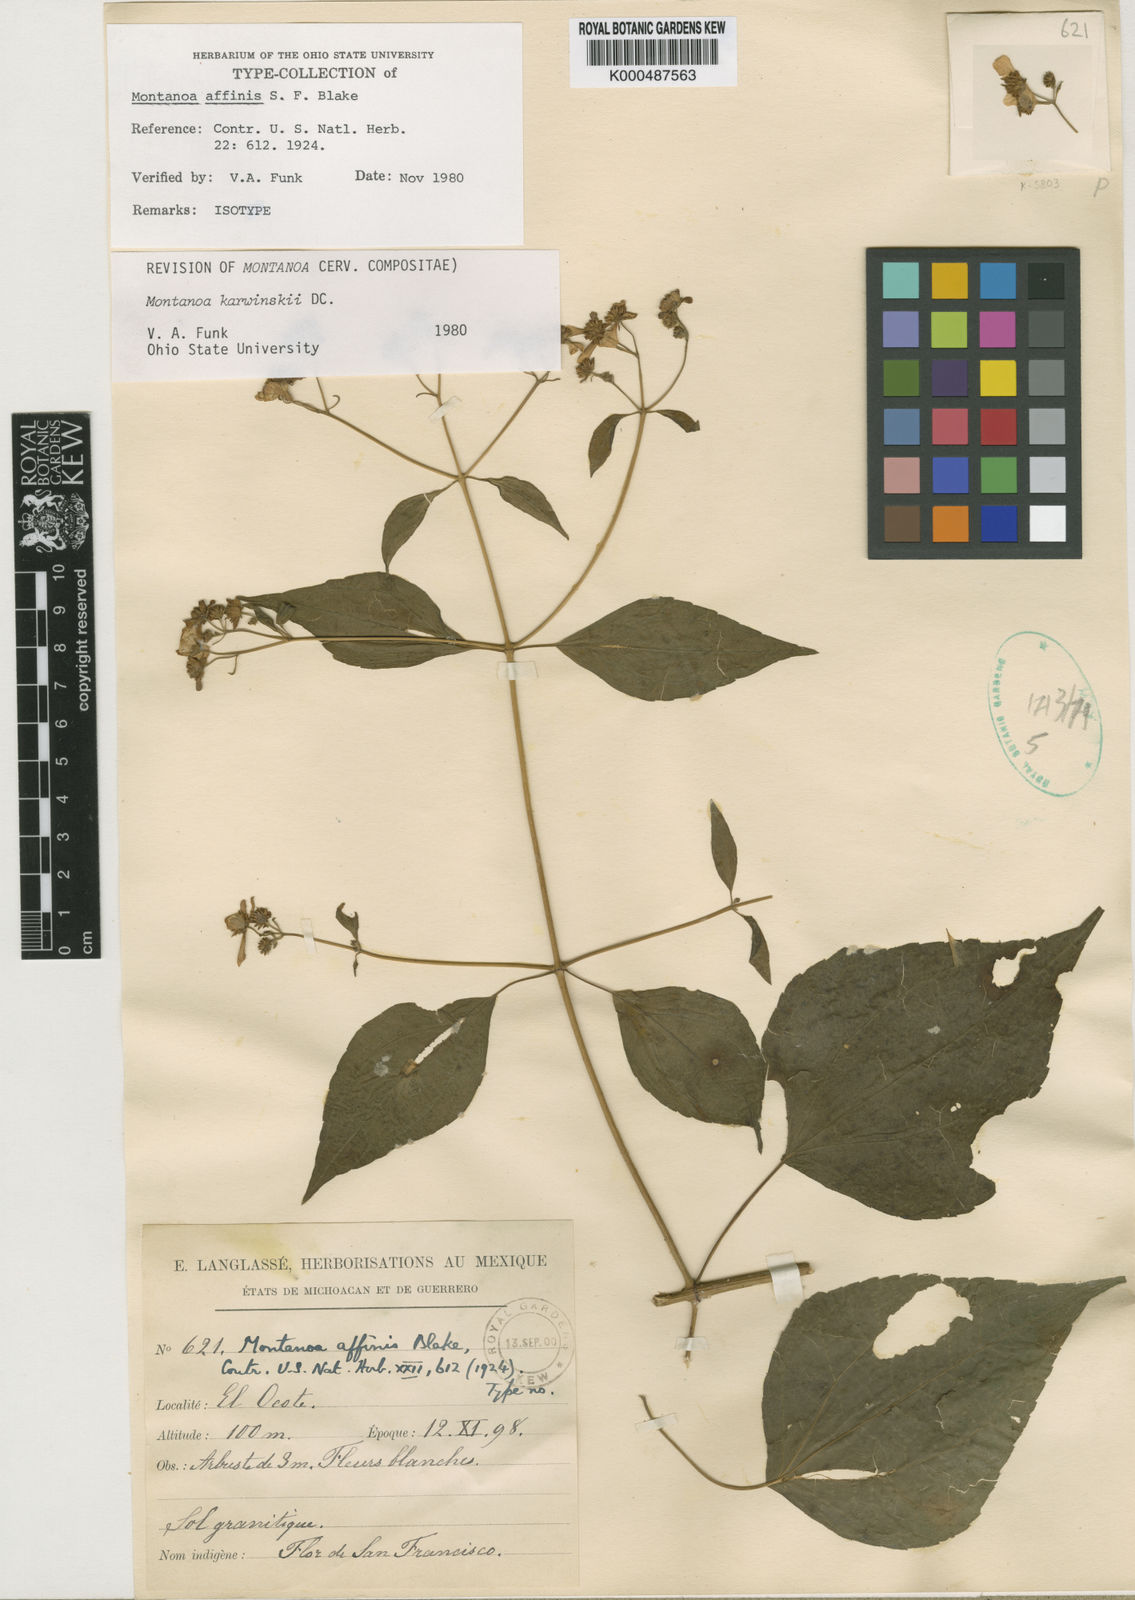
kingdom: Plantae
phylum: Tracheophyta
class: Magnoliopsida
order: Asterales
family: Asteraceae
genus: Montanoa
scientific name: Montanoa karwinskii
